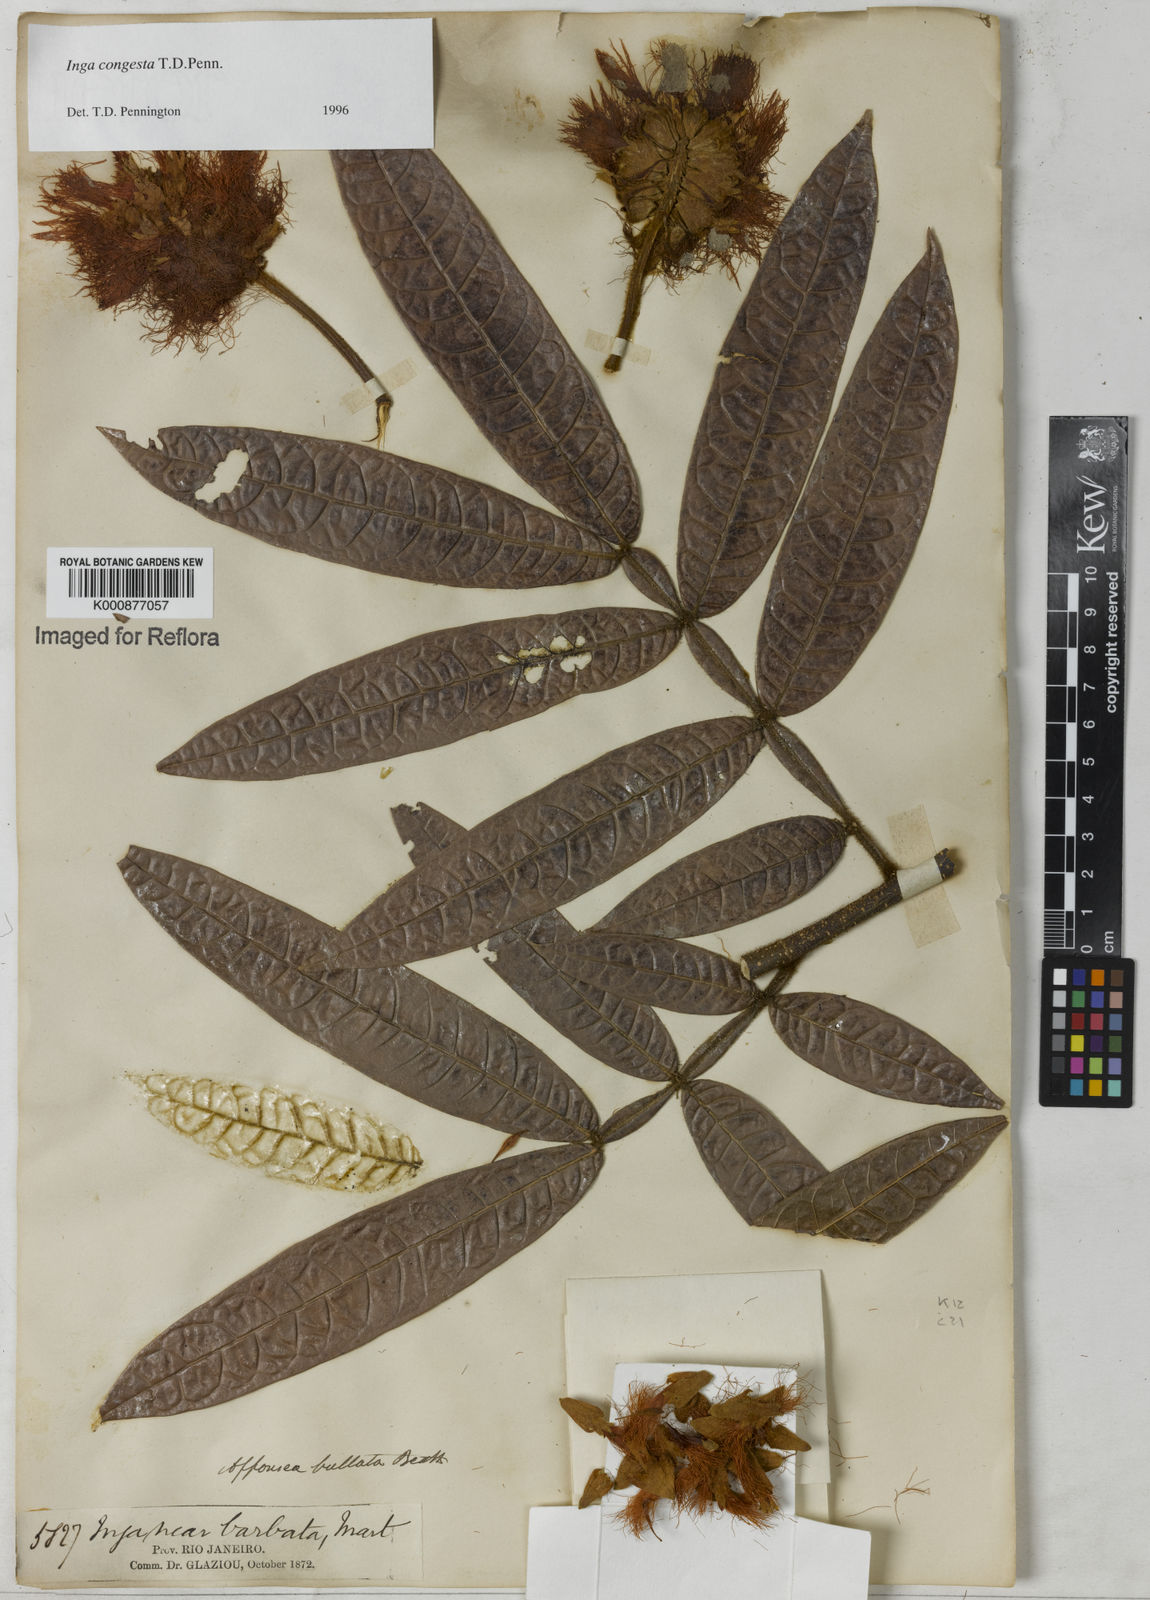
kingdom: Plantae
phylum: Tracheophyta
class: Magnoliopsida
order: Fabales
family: Fabaceae
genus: Inga
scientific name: Inga congesta
